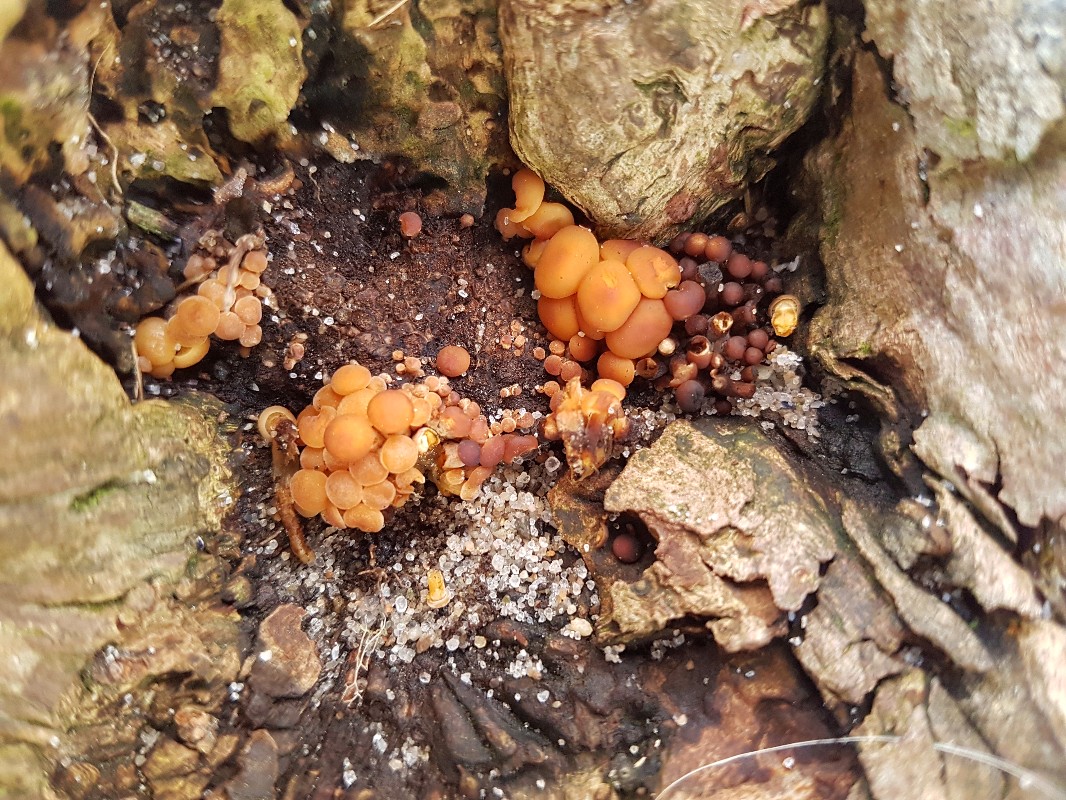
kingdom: Fungi
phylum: Basidiomycota
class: Agaricomycetes
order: Agaricales
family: Physalacriaceae
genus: Flammulina
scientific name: Flammulina
